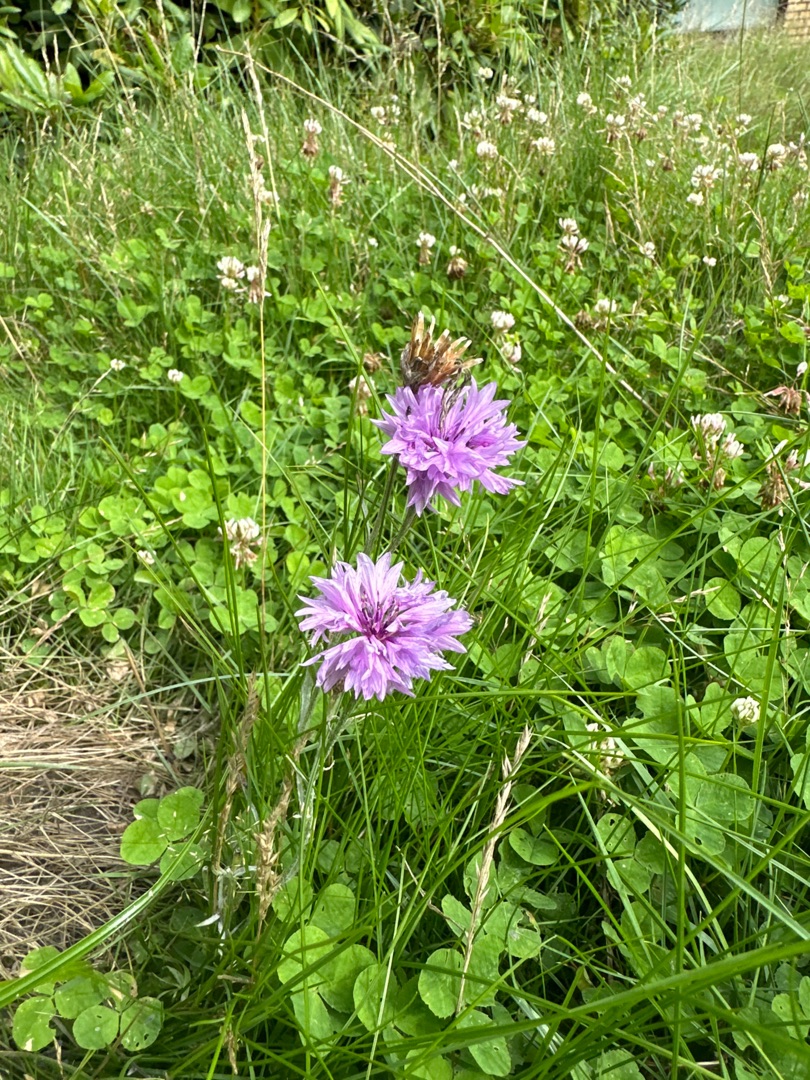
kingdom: Plantae
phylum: Tracheophyta
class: Magnoliopsida
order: Asterales
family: Asteraceae
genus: Centaurea
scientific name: Centaurea cyanus
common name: Kornblomst
